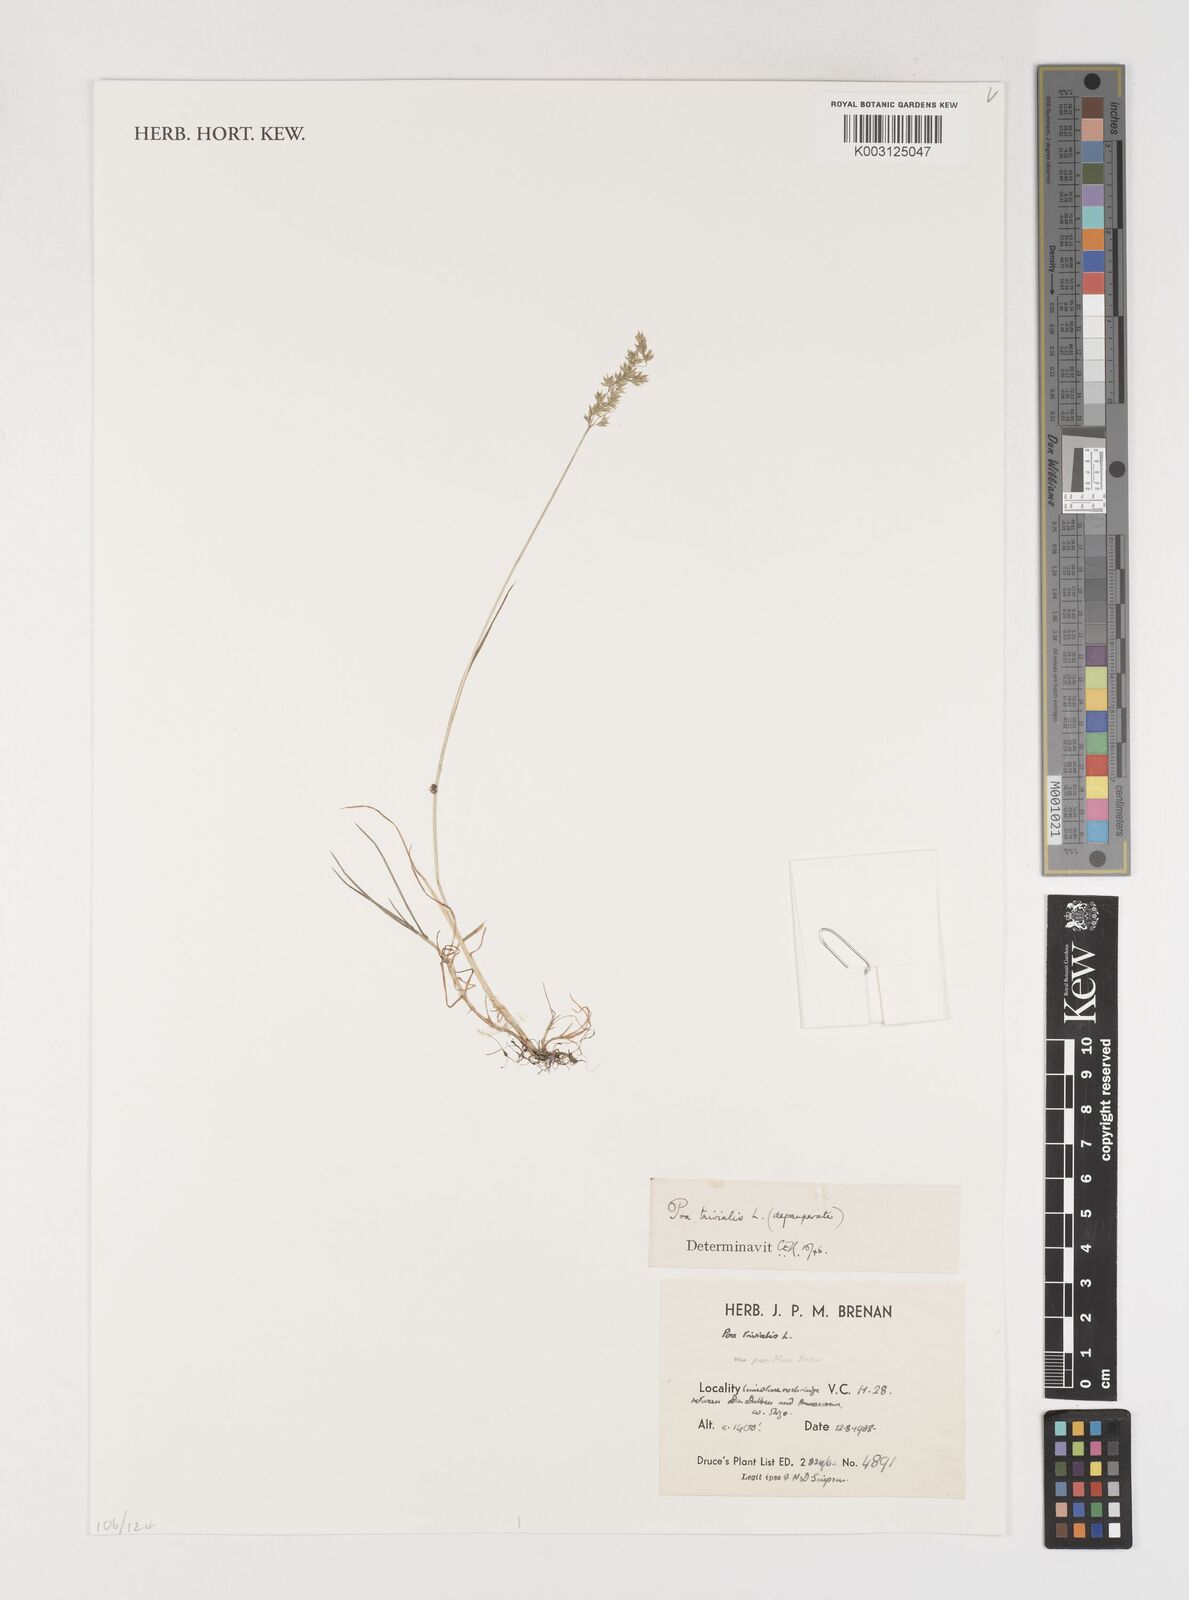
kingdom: Plantae
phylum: Tracheophyta
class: Liliopsida
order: Poales
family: Poaceae
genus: Poa
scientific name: Poa trivialis
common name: Rough bluegrass
